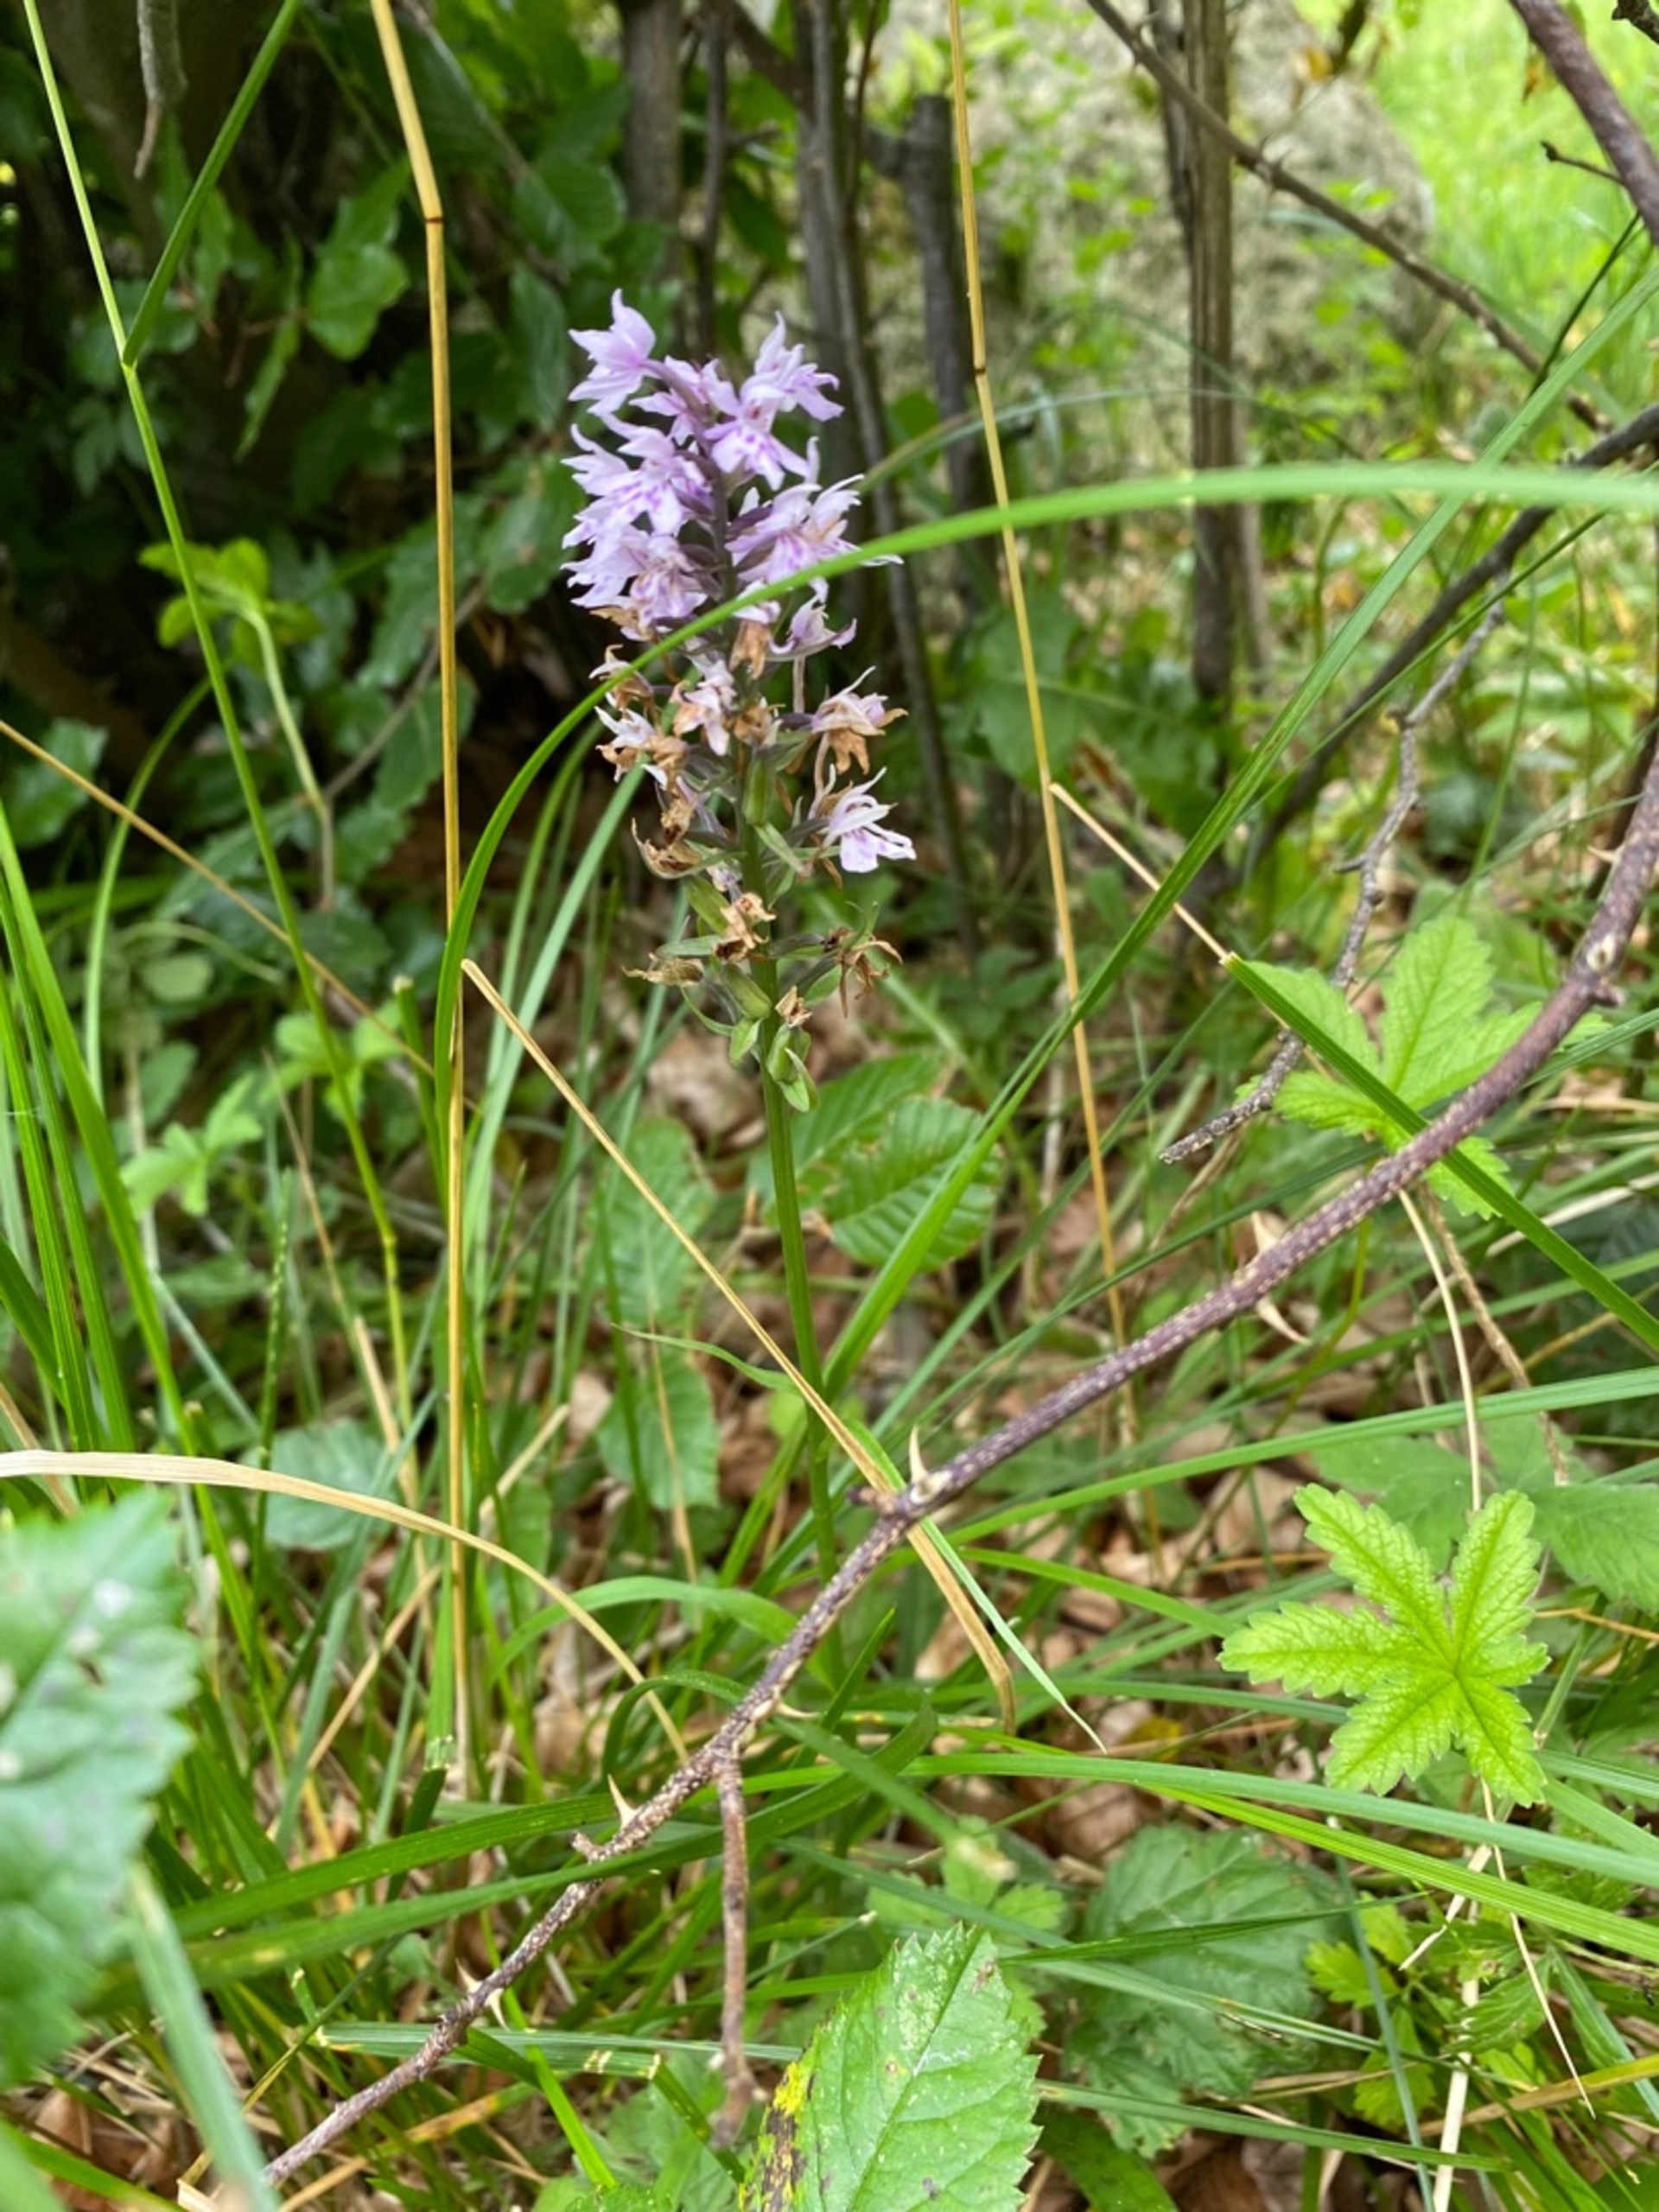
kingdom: Plantae
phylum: Tracheophyta
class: Liliopsida
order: Asparagales
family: Orchidaceae
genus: Dactylorhiza
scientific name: Dactylorhiza maculata
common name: Skov-gøgeurt
